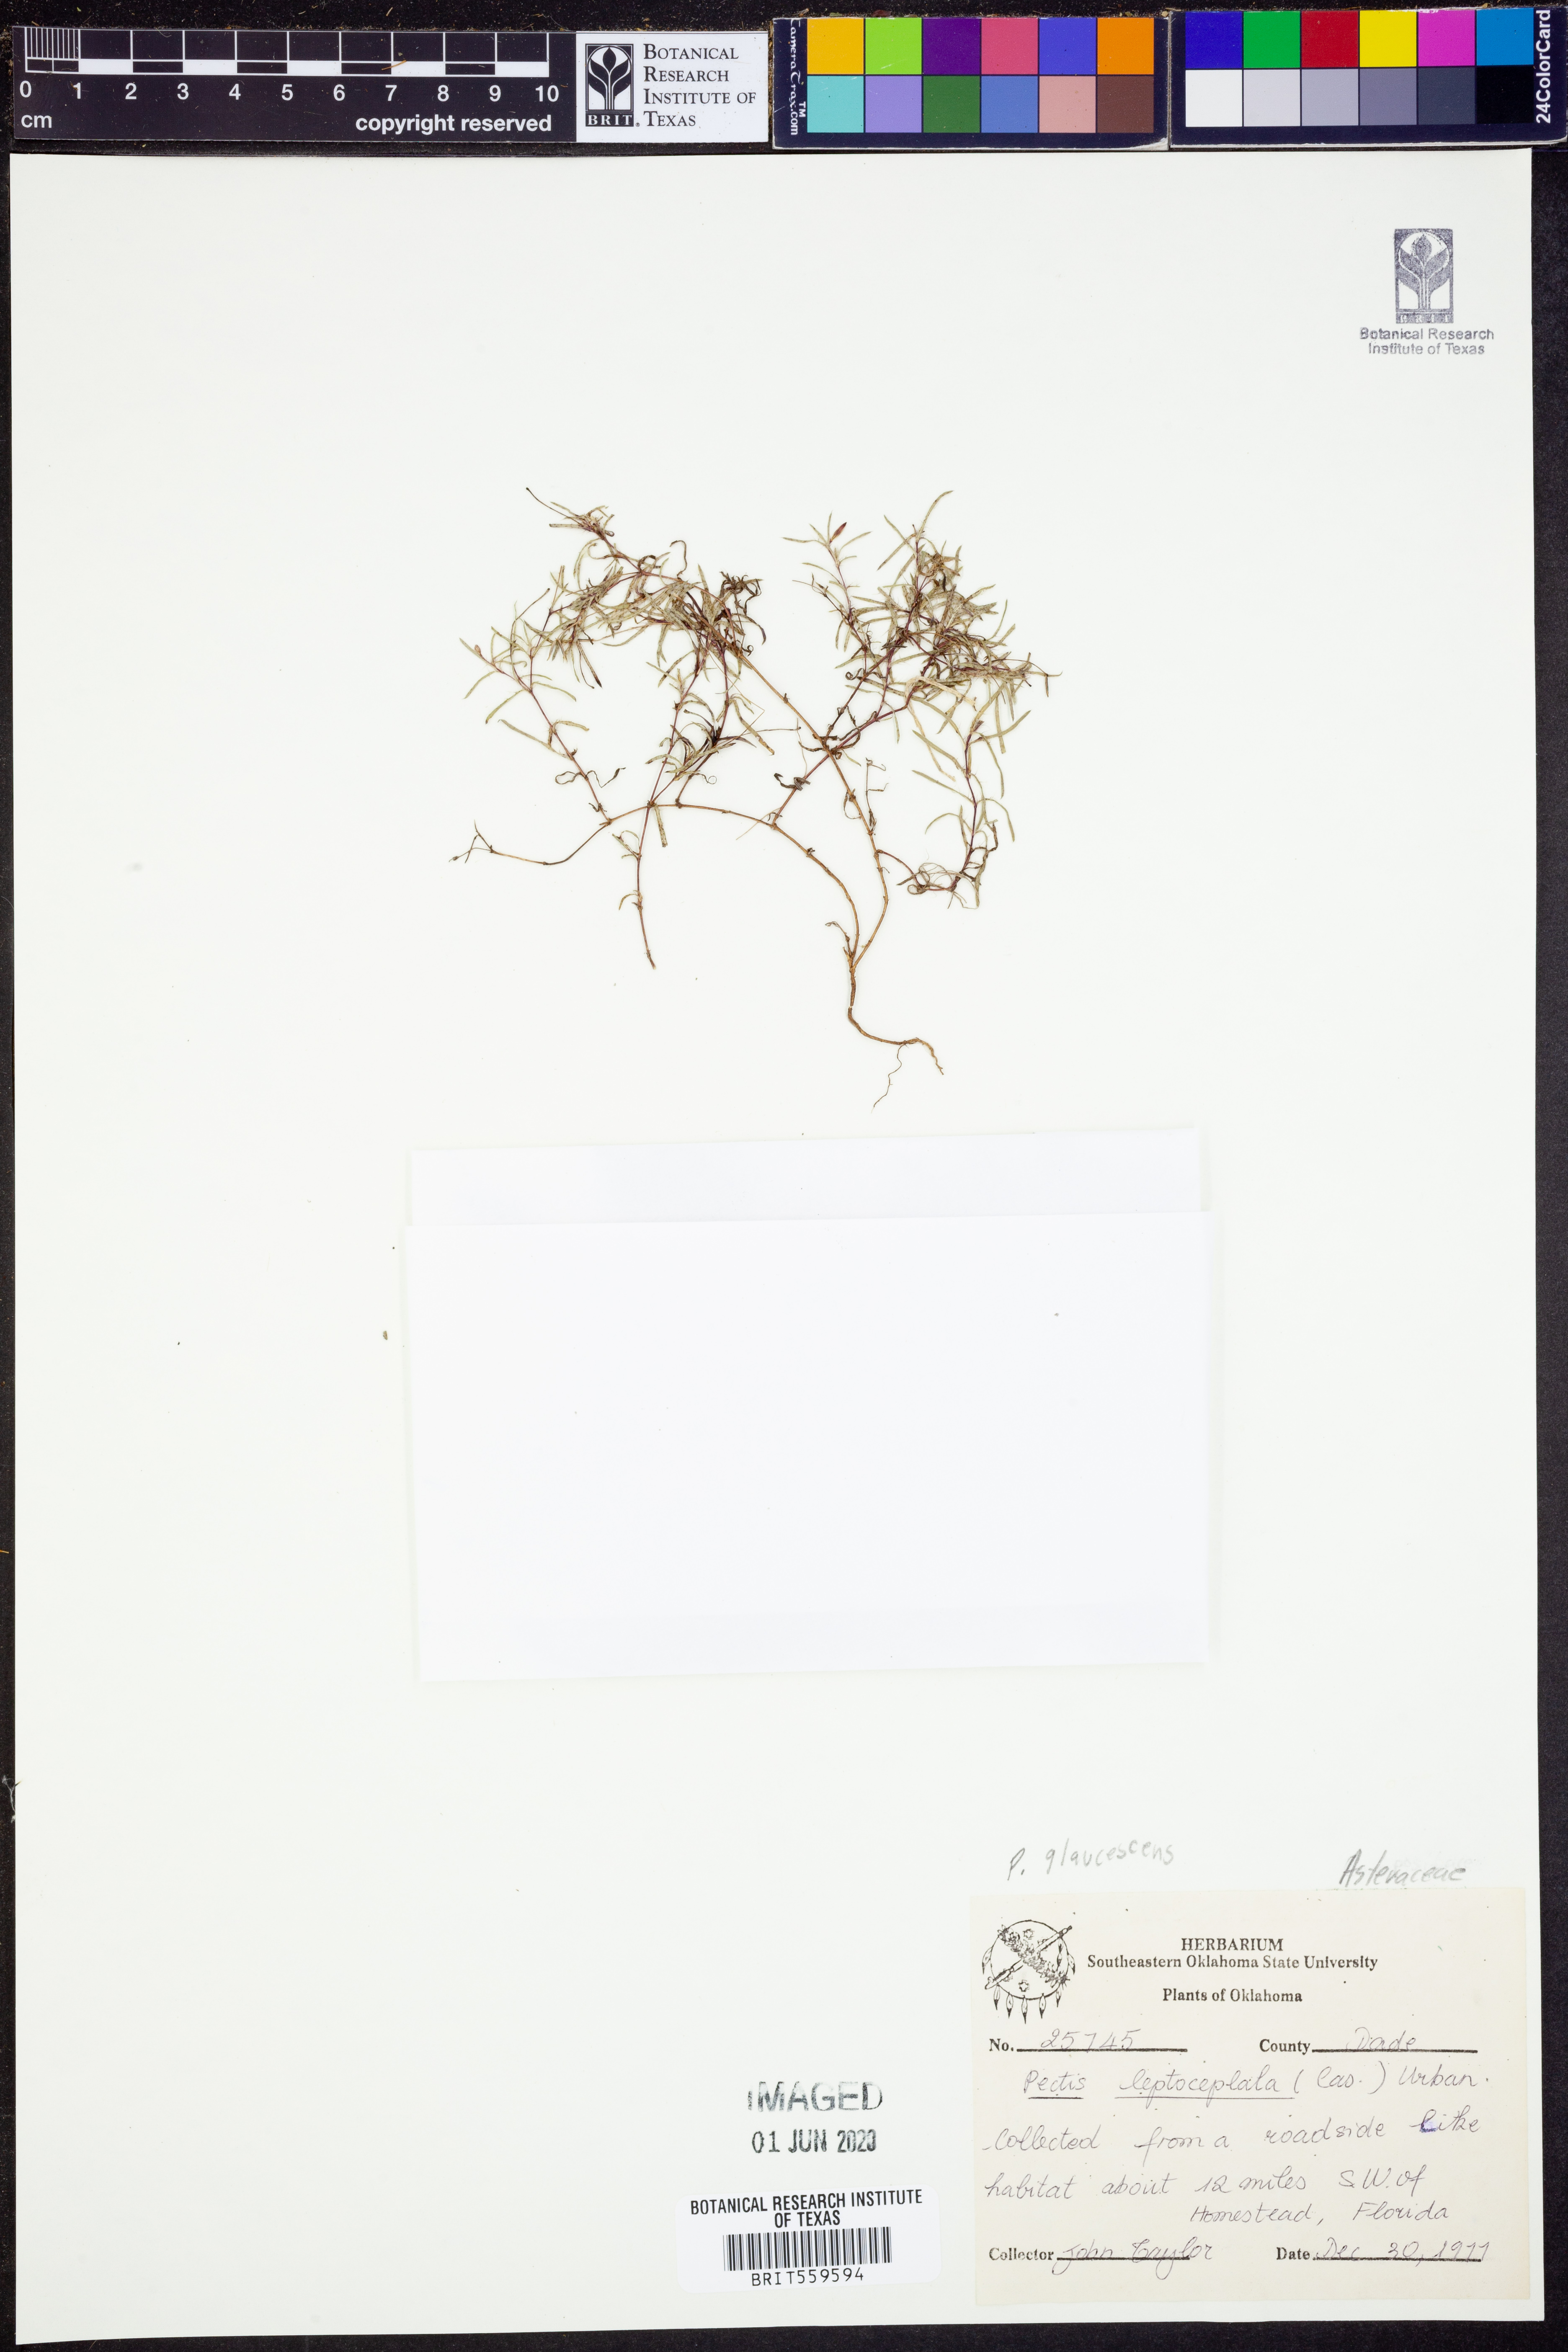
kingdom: Plantae
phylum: Tracheophyta
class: Magnoliopsida
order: Asterales
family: Asteraceae
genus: Pectis
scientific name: Pectis glaucescens
